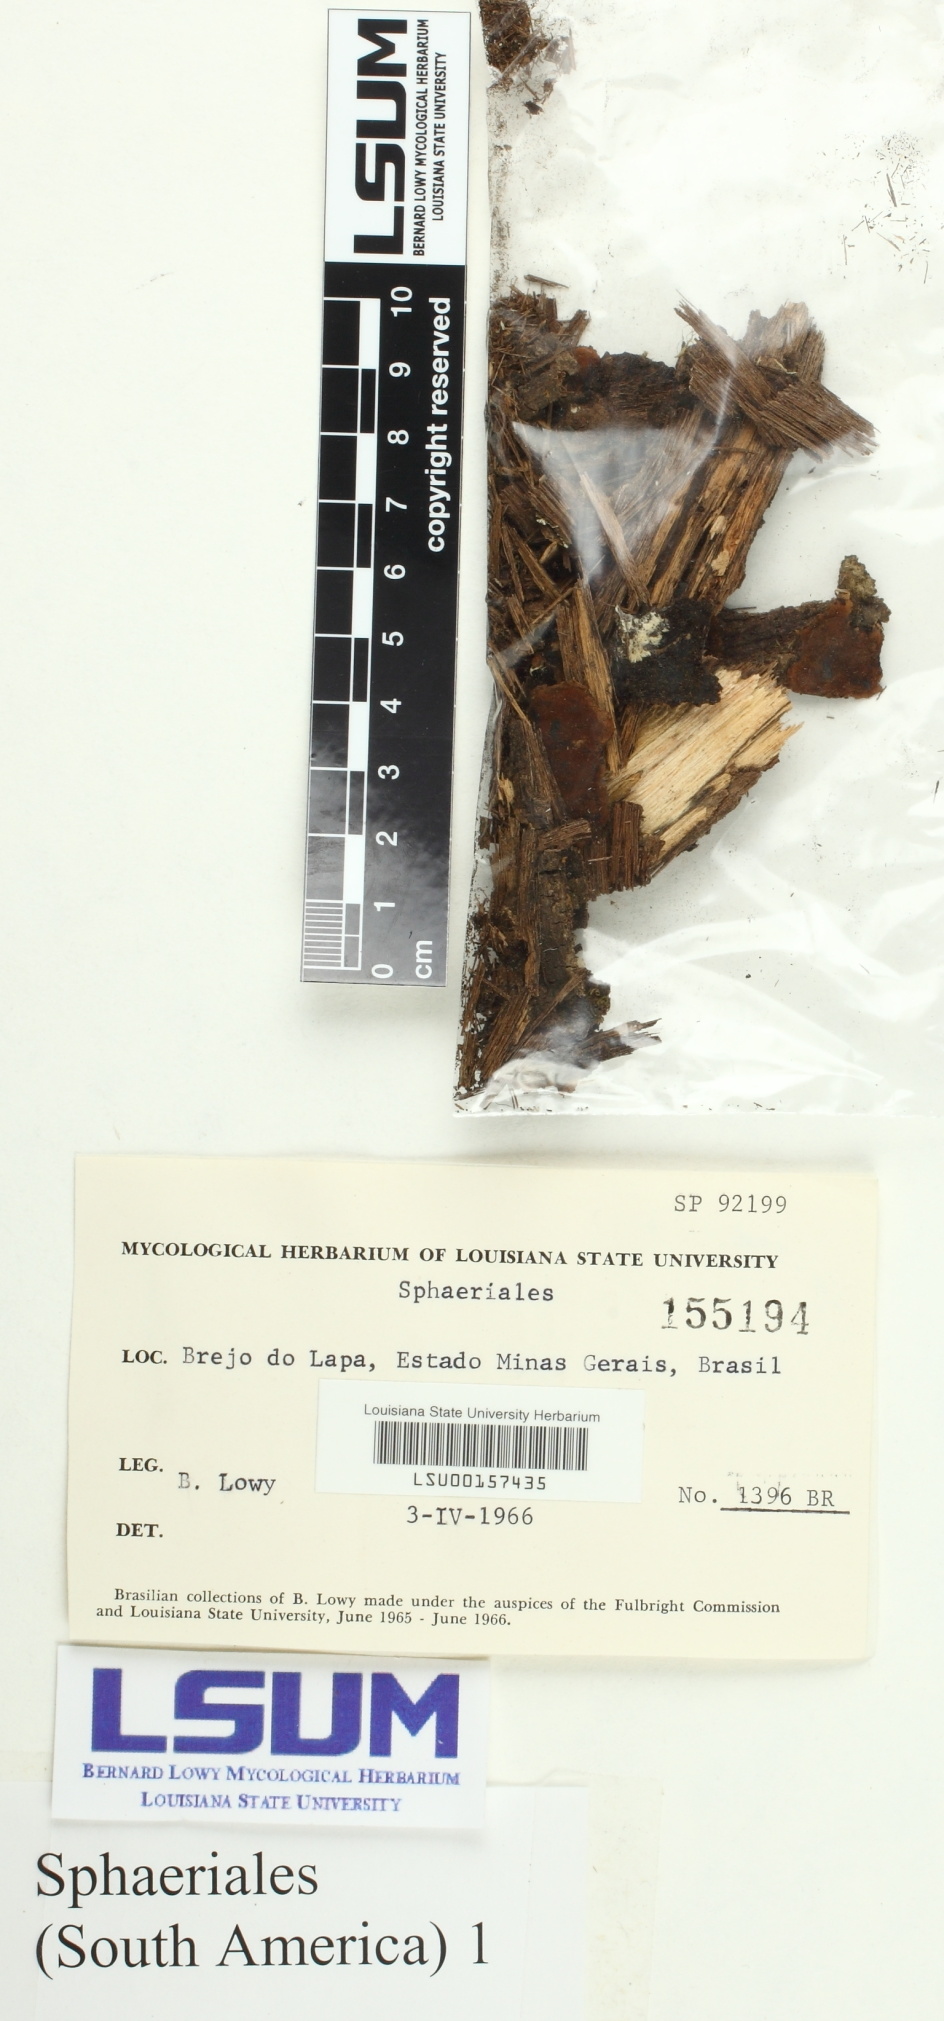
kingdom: Fungi
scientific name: Fungi
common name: Fungi
